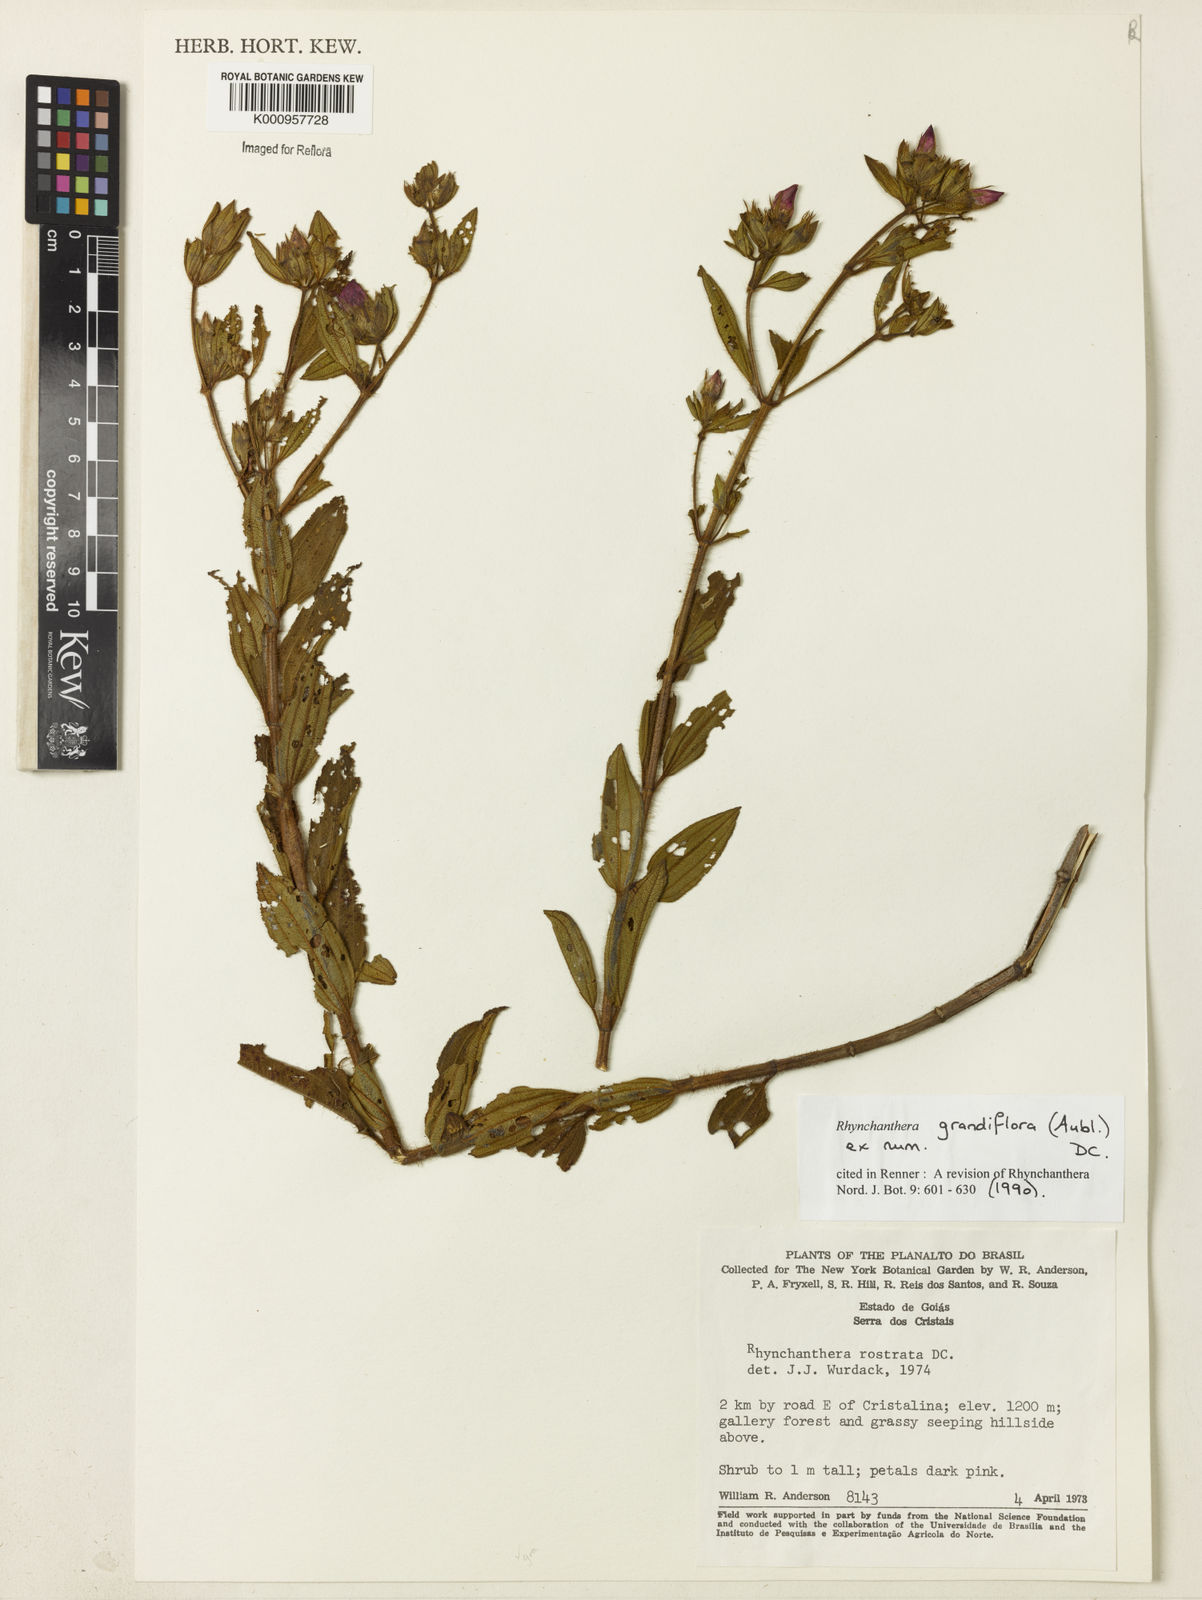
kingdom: Plantae
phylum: Tracheophyta
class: Magnoliopsida
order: Myrtales
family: Melastomataceae
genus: Rhynchanthera
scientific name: Rhynchanthera grandiflora
